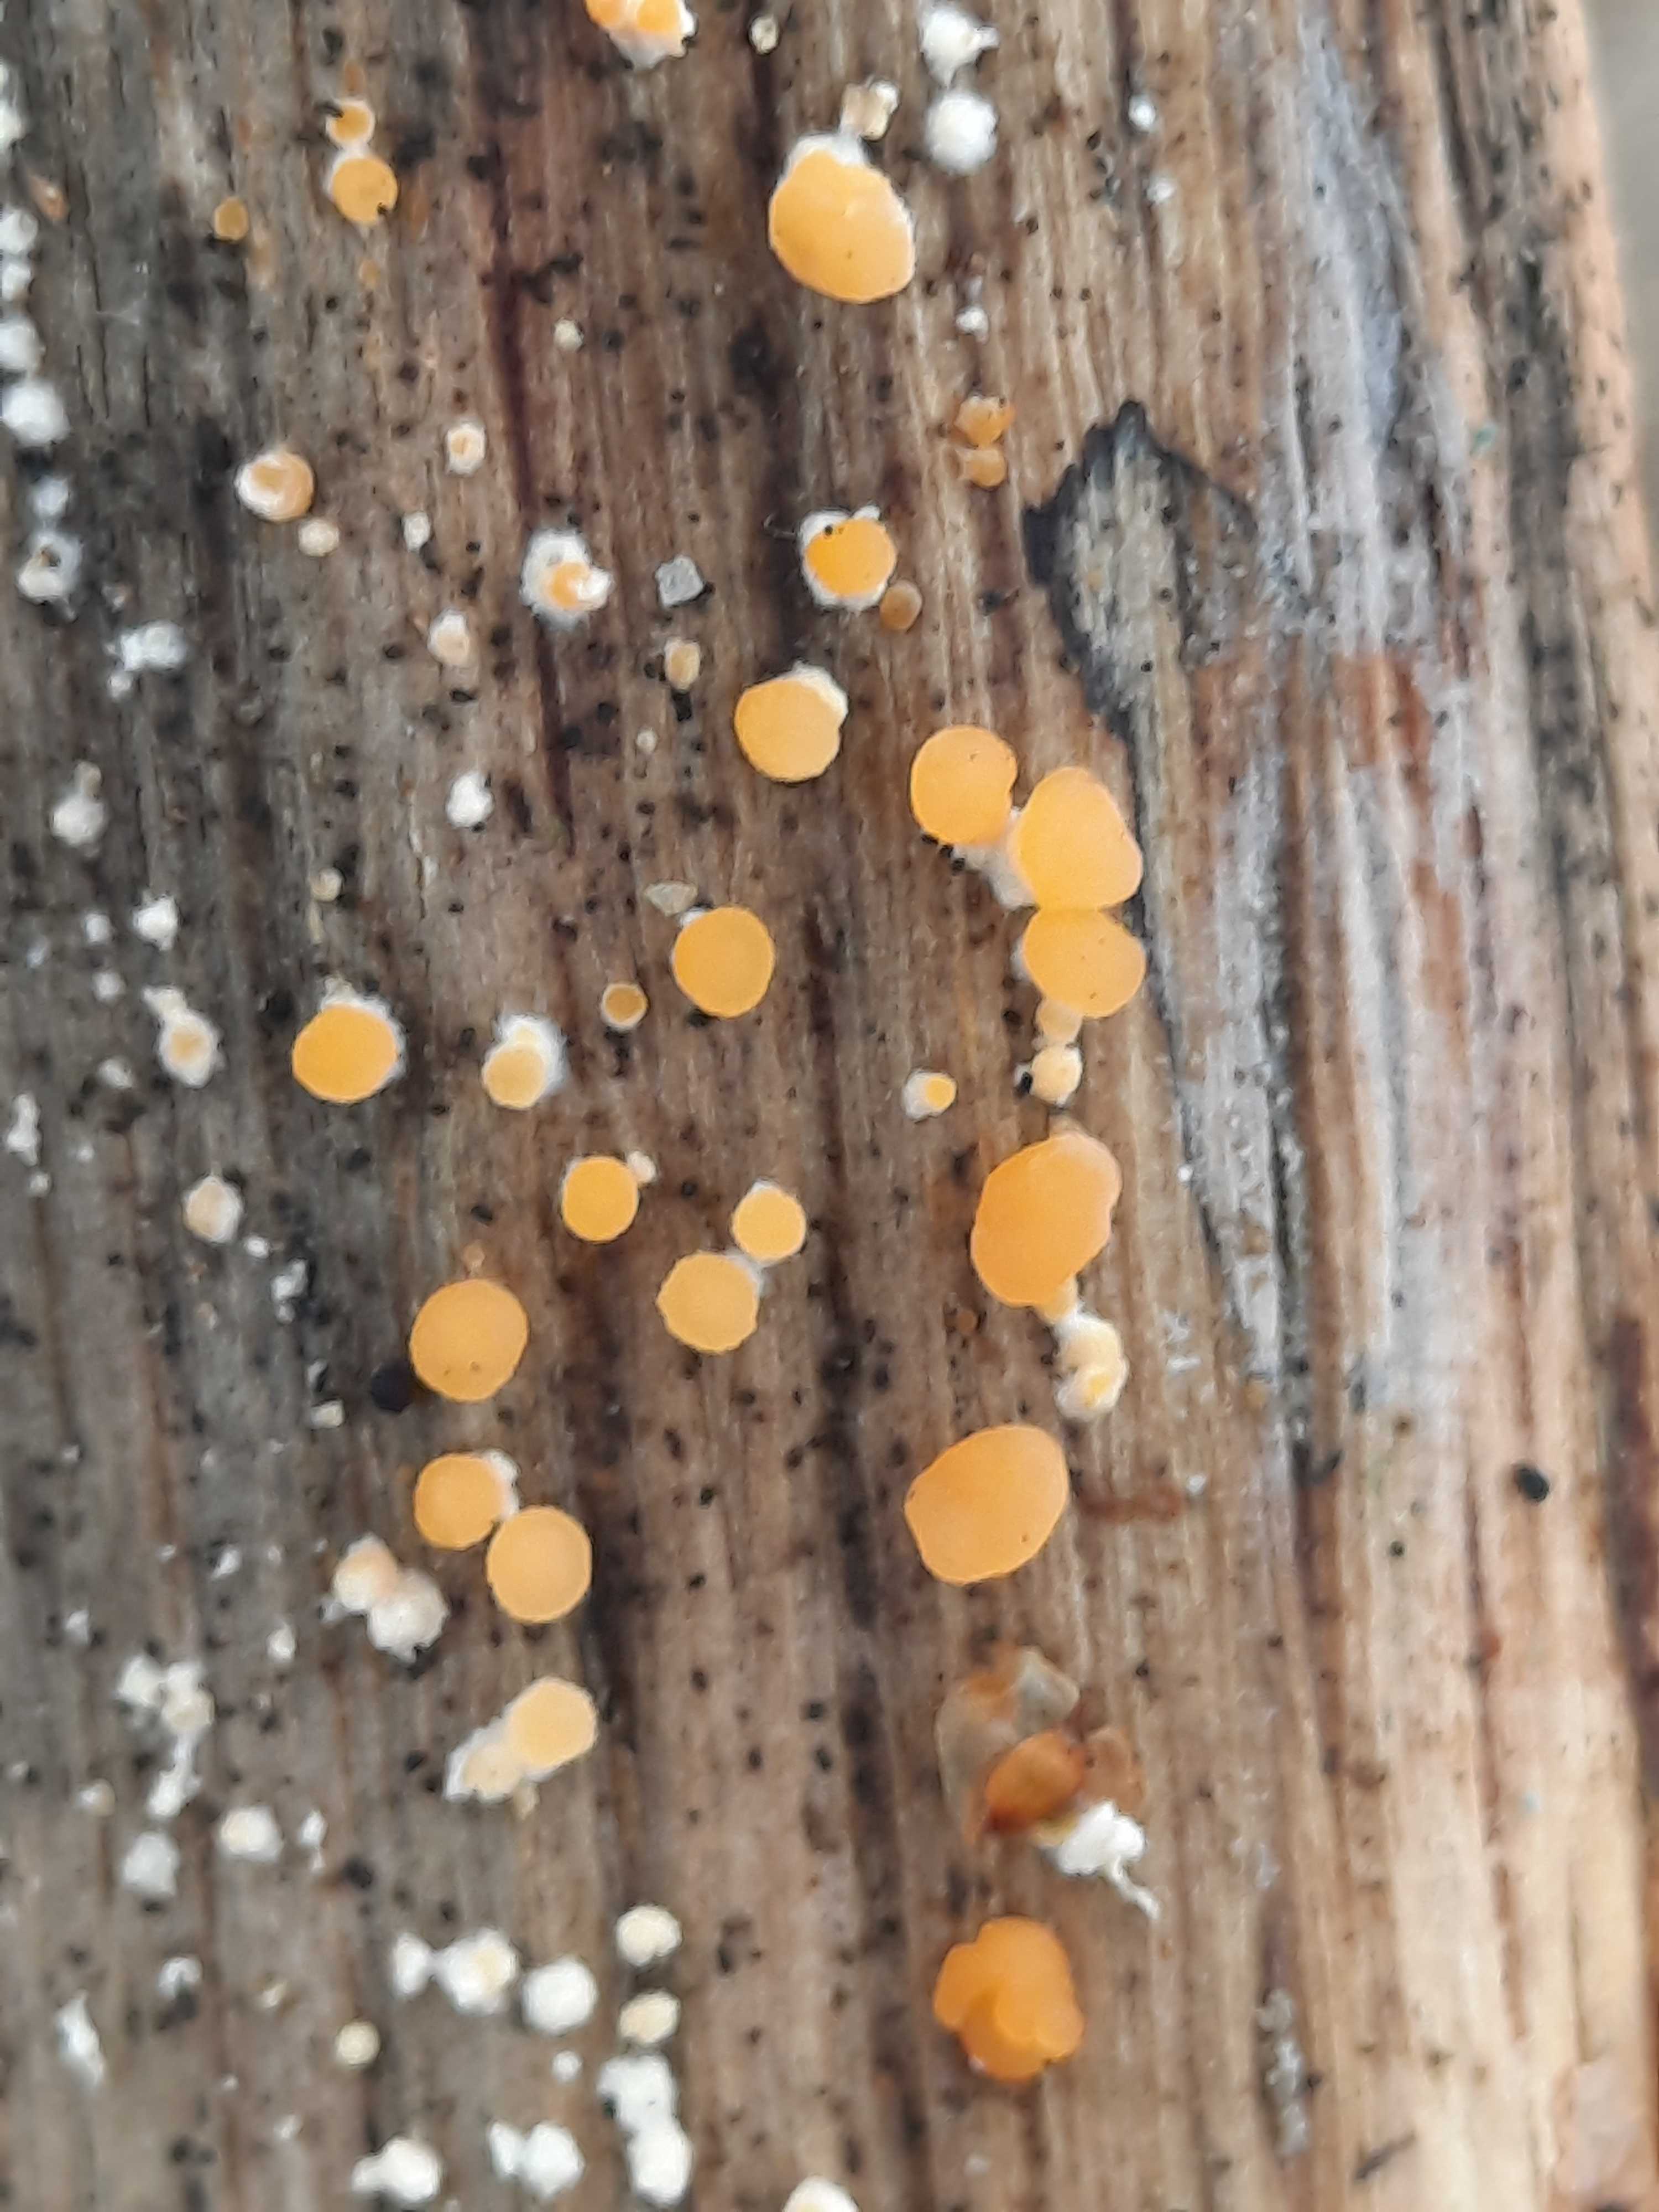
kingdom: Fungi
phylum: Basidiomycota
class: Dacrymycetes
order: Dacrymycetales
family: Dacrymycetaceae
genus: Dacrymyces
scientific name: Dacrymyces
